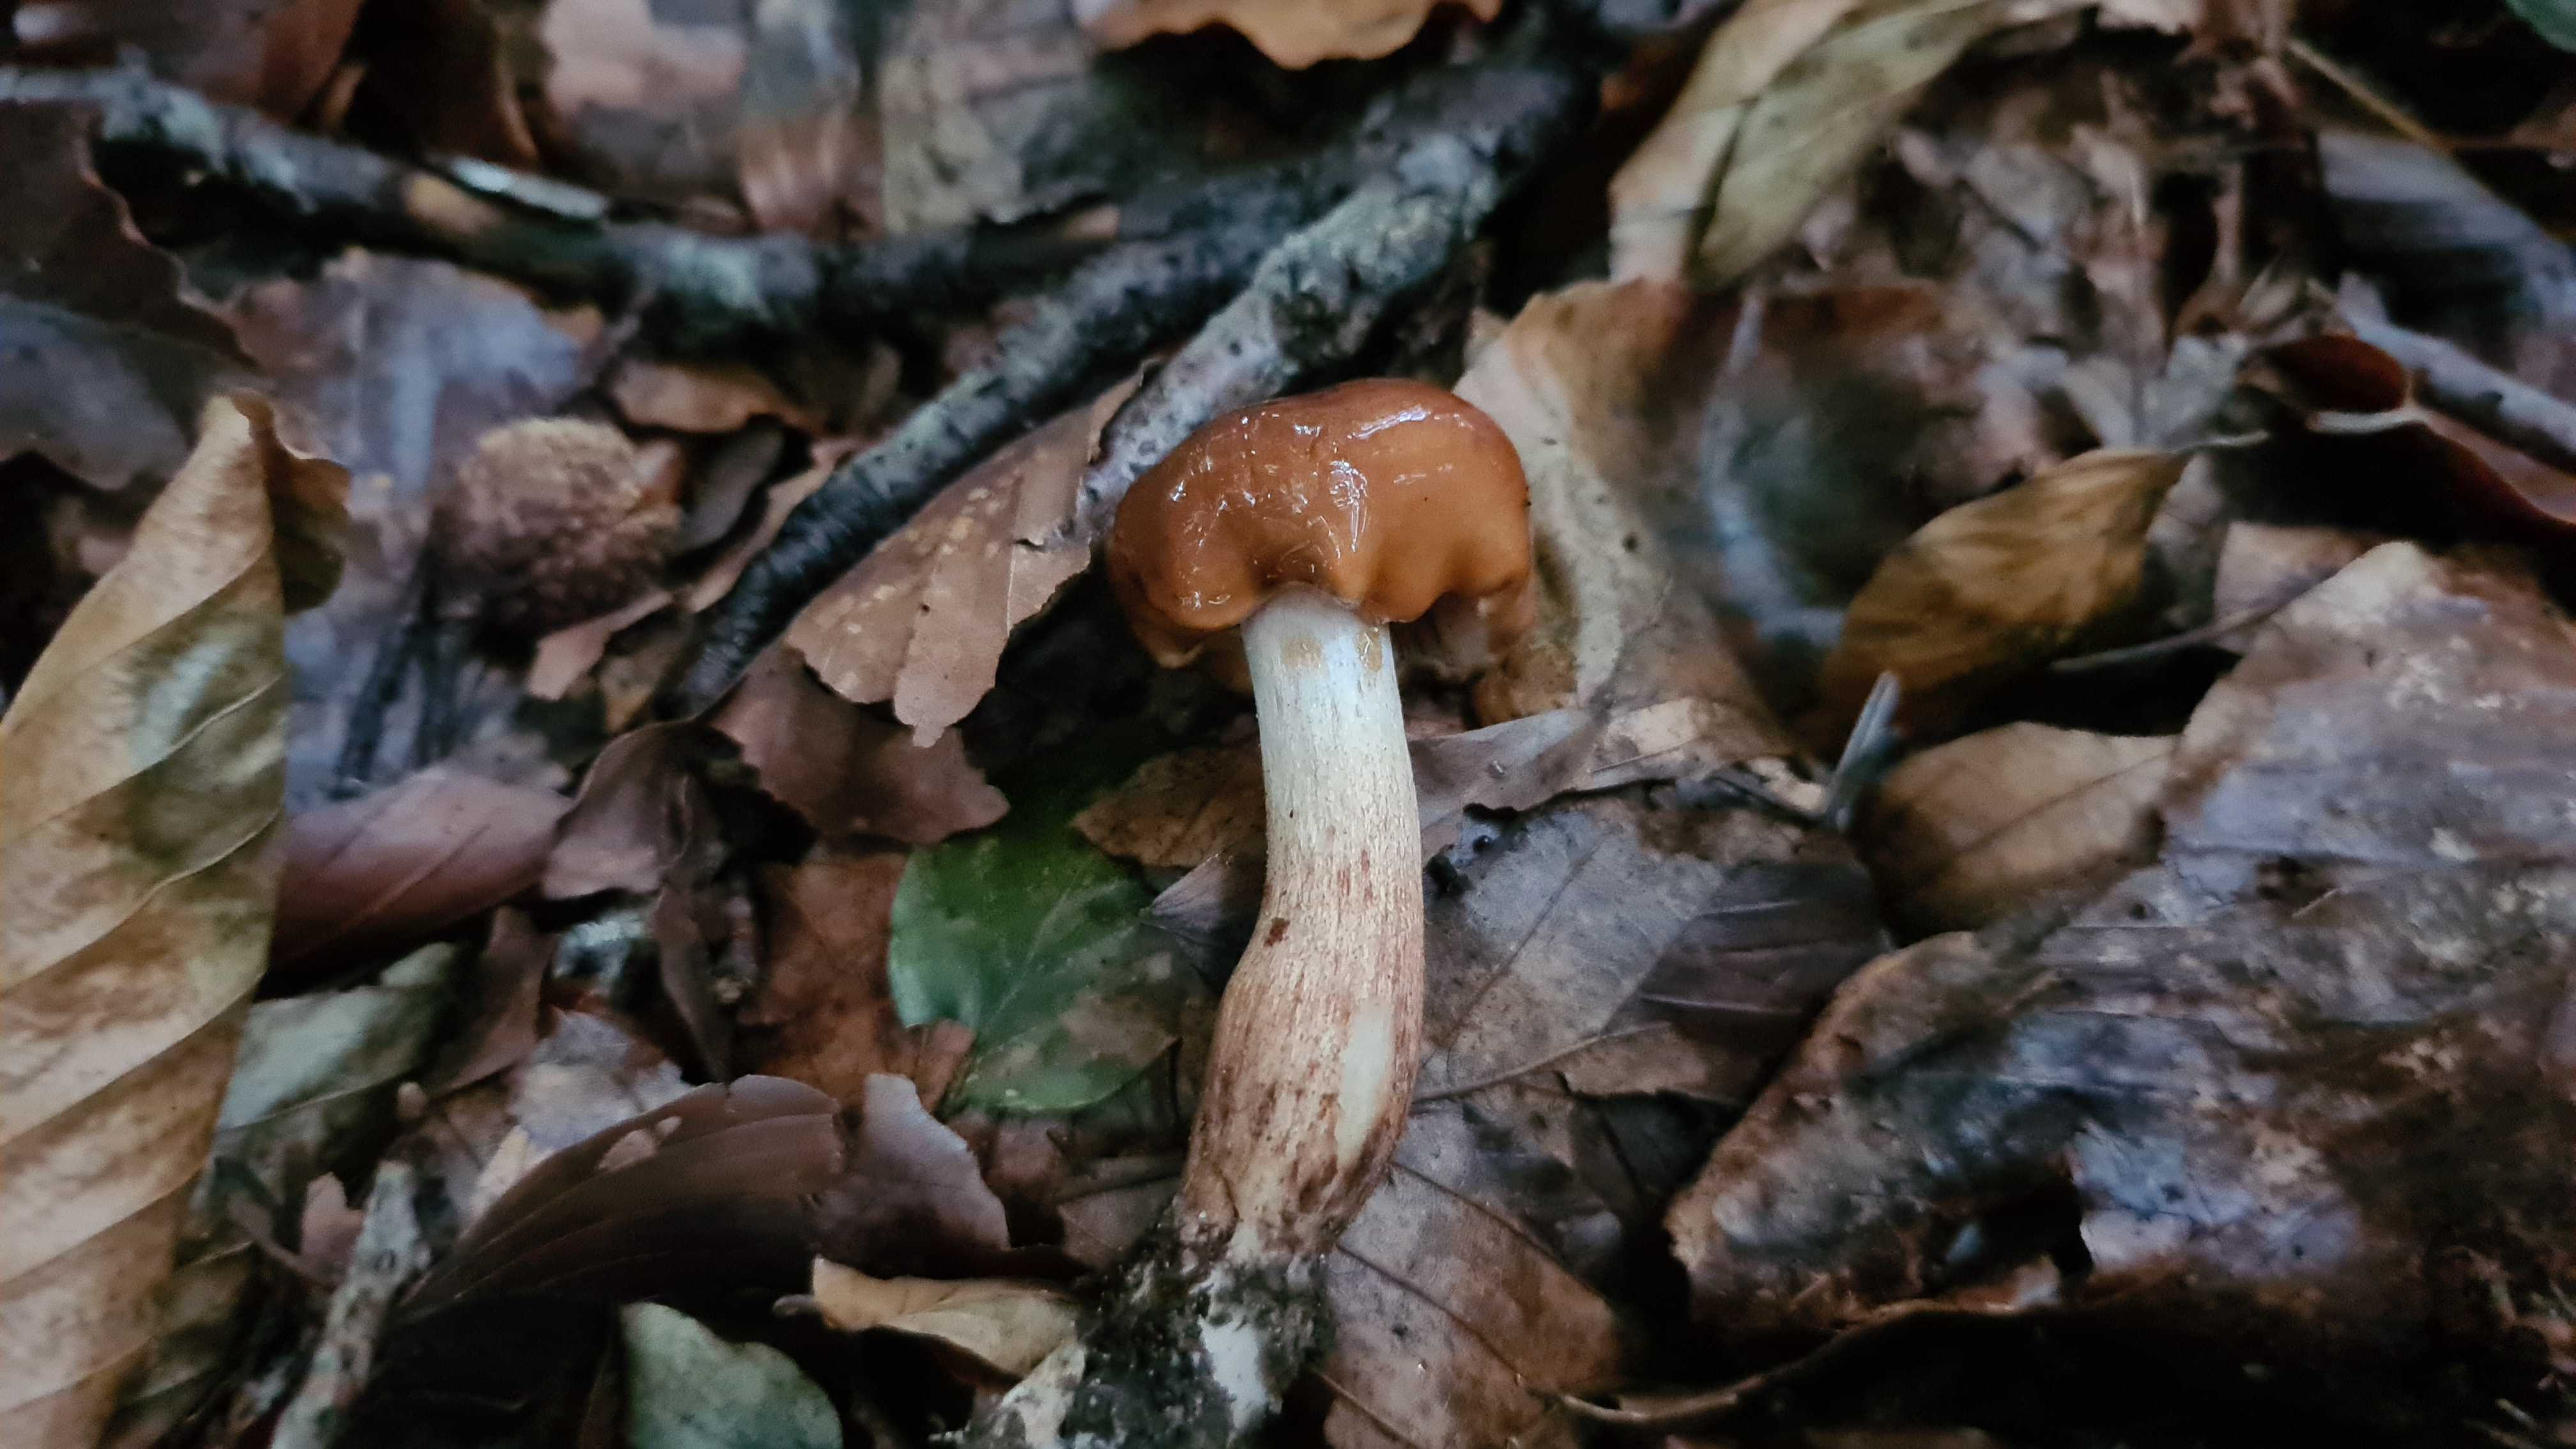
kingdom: Fungi
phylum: Basidiomycota
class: Agaricomycetes
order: Agaricales
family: Tricholomataceae
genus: Tricholoma
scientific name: Tricholoma ustale
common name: sveden ridderhat
